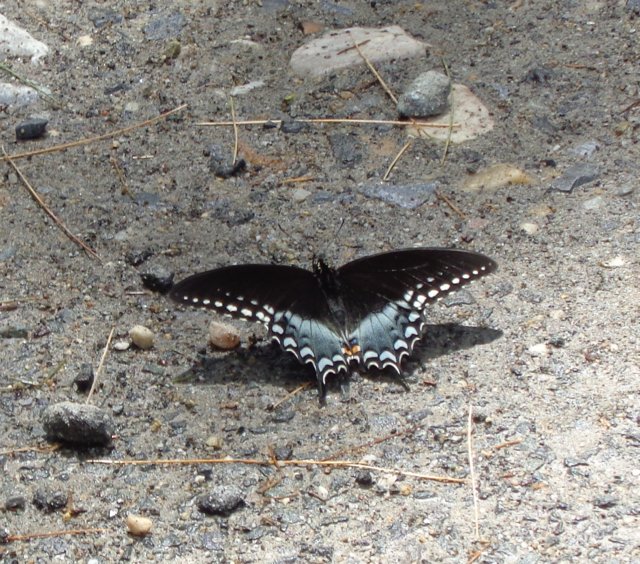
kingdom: Animalia
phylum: Arthropoda
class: Insecta
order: Lepidoptera
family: Papilionidae
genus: Pterourus
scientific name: Pterourus troilus
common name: Spicebush Swallowtail
